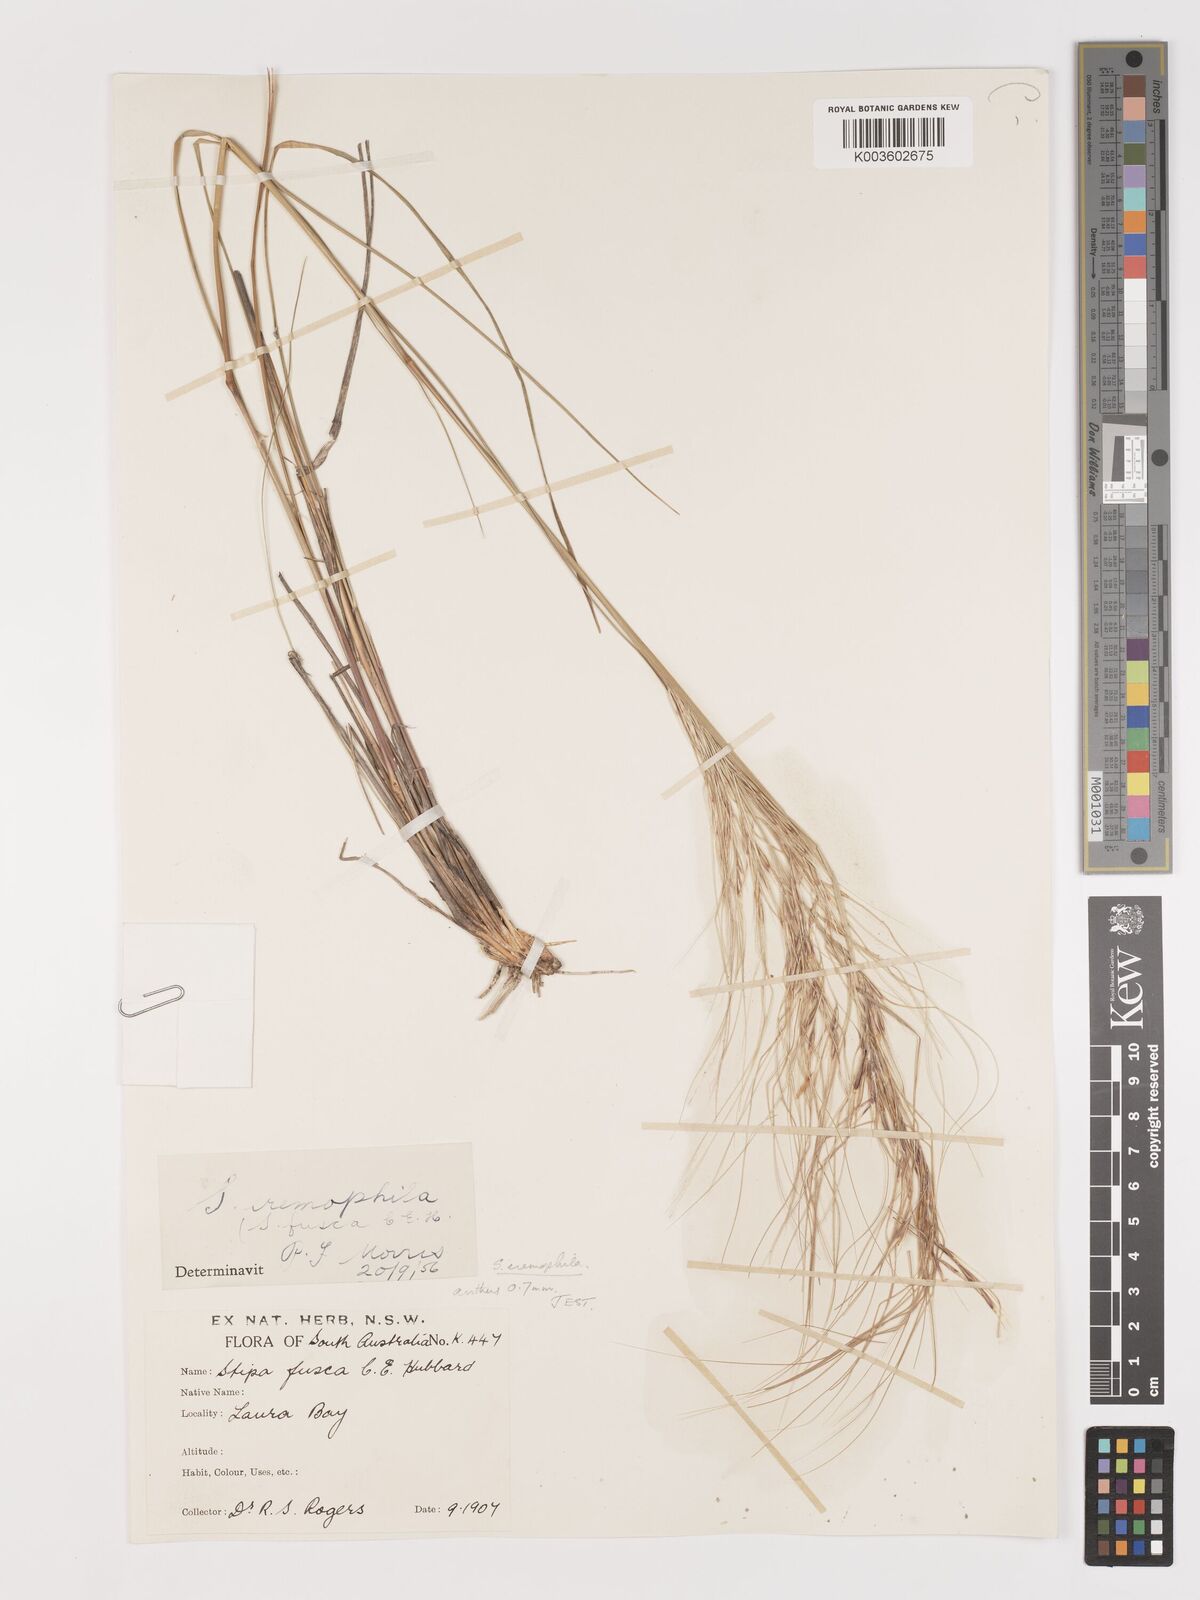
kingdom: Plantae
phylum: Tracheophyta
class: Liliopsida
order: Poales
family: Poaceae
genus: Austrostipa
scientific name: Austrostipa eremophila
